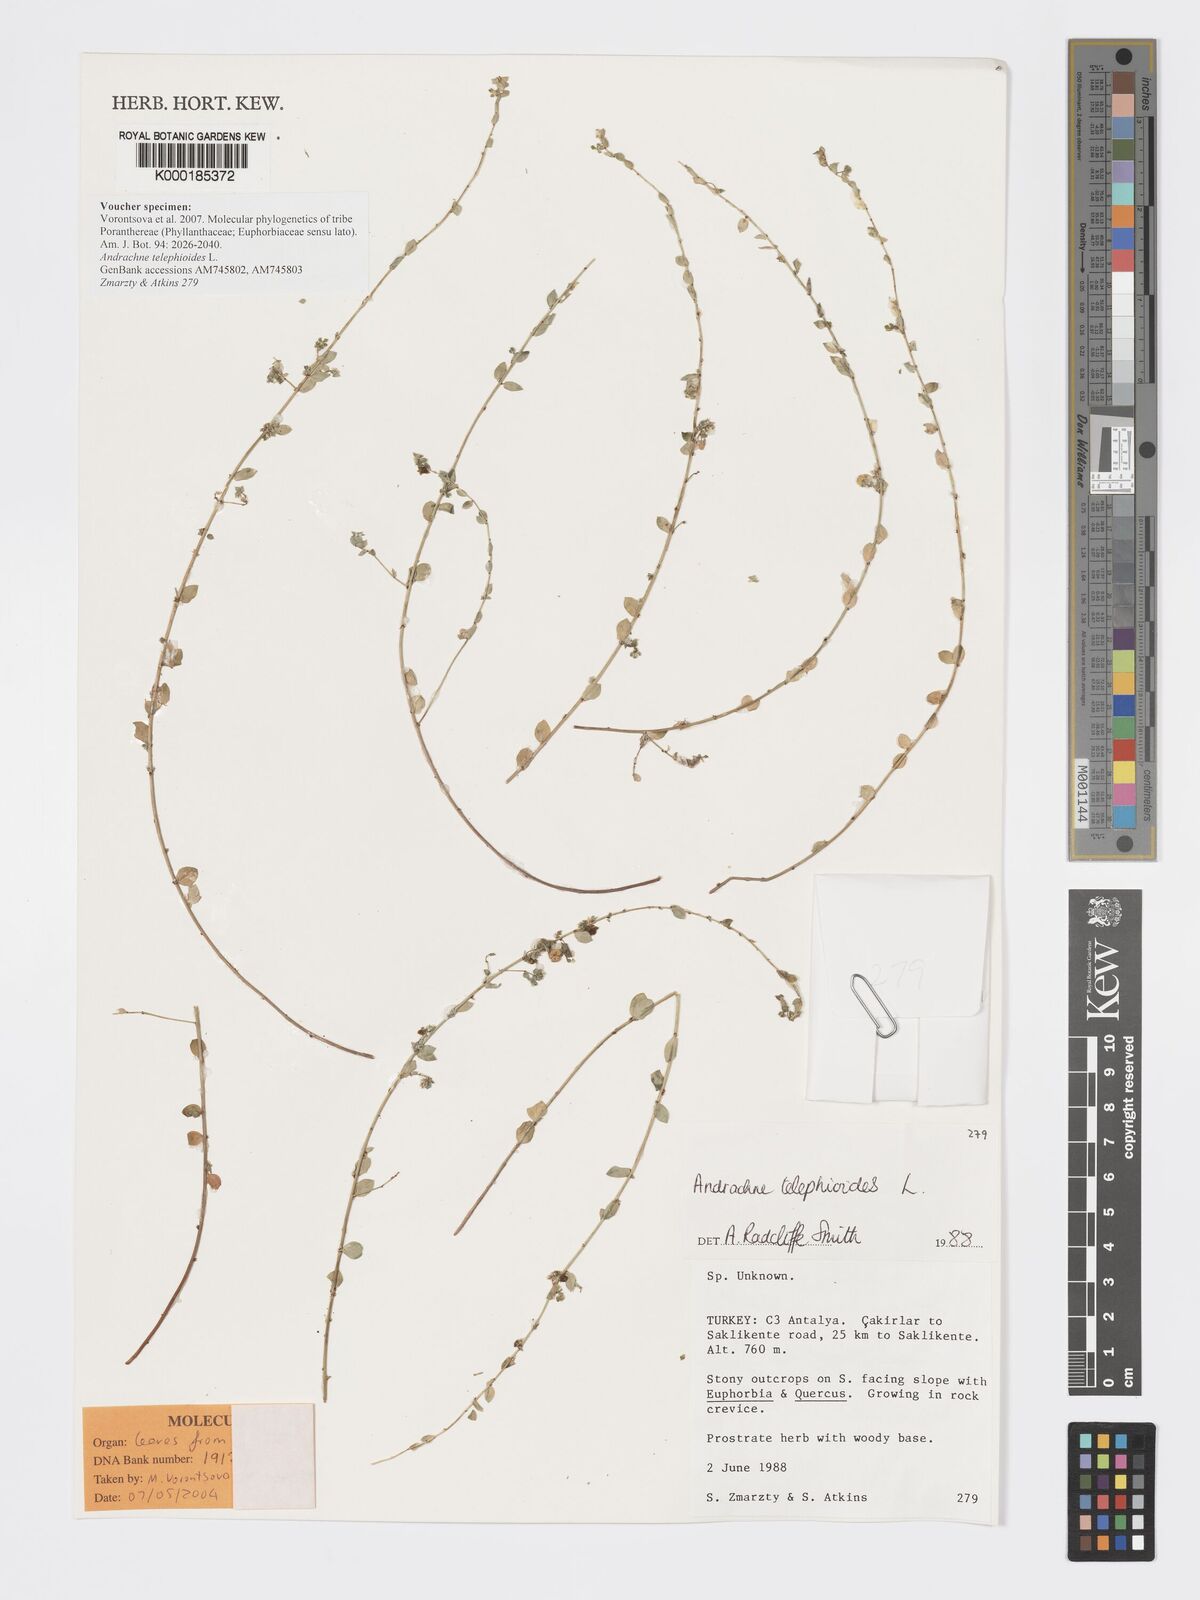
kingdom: Plantae
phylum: Tracheophyta
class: Magnoliopsida
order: Malpighiales
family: Phyllanthaceae
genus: Andrachne
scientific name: Andrachne telephioides
